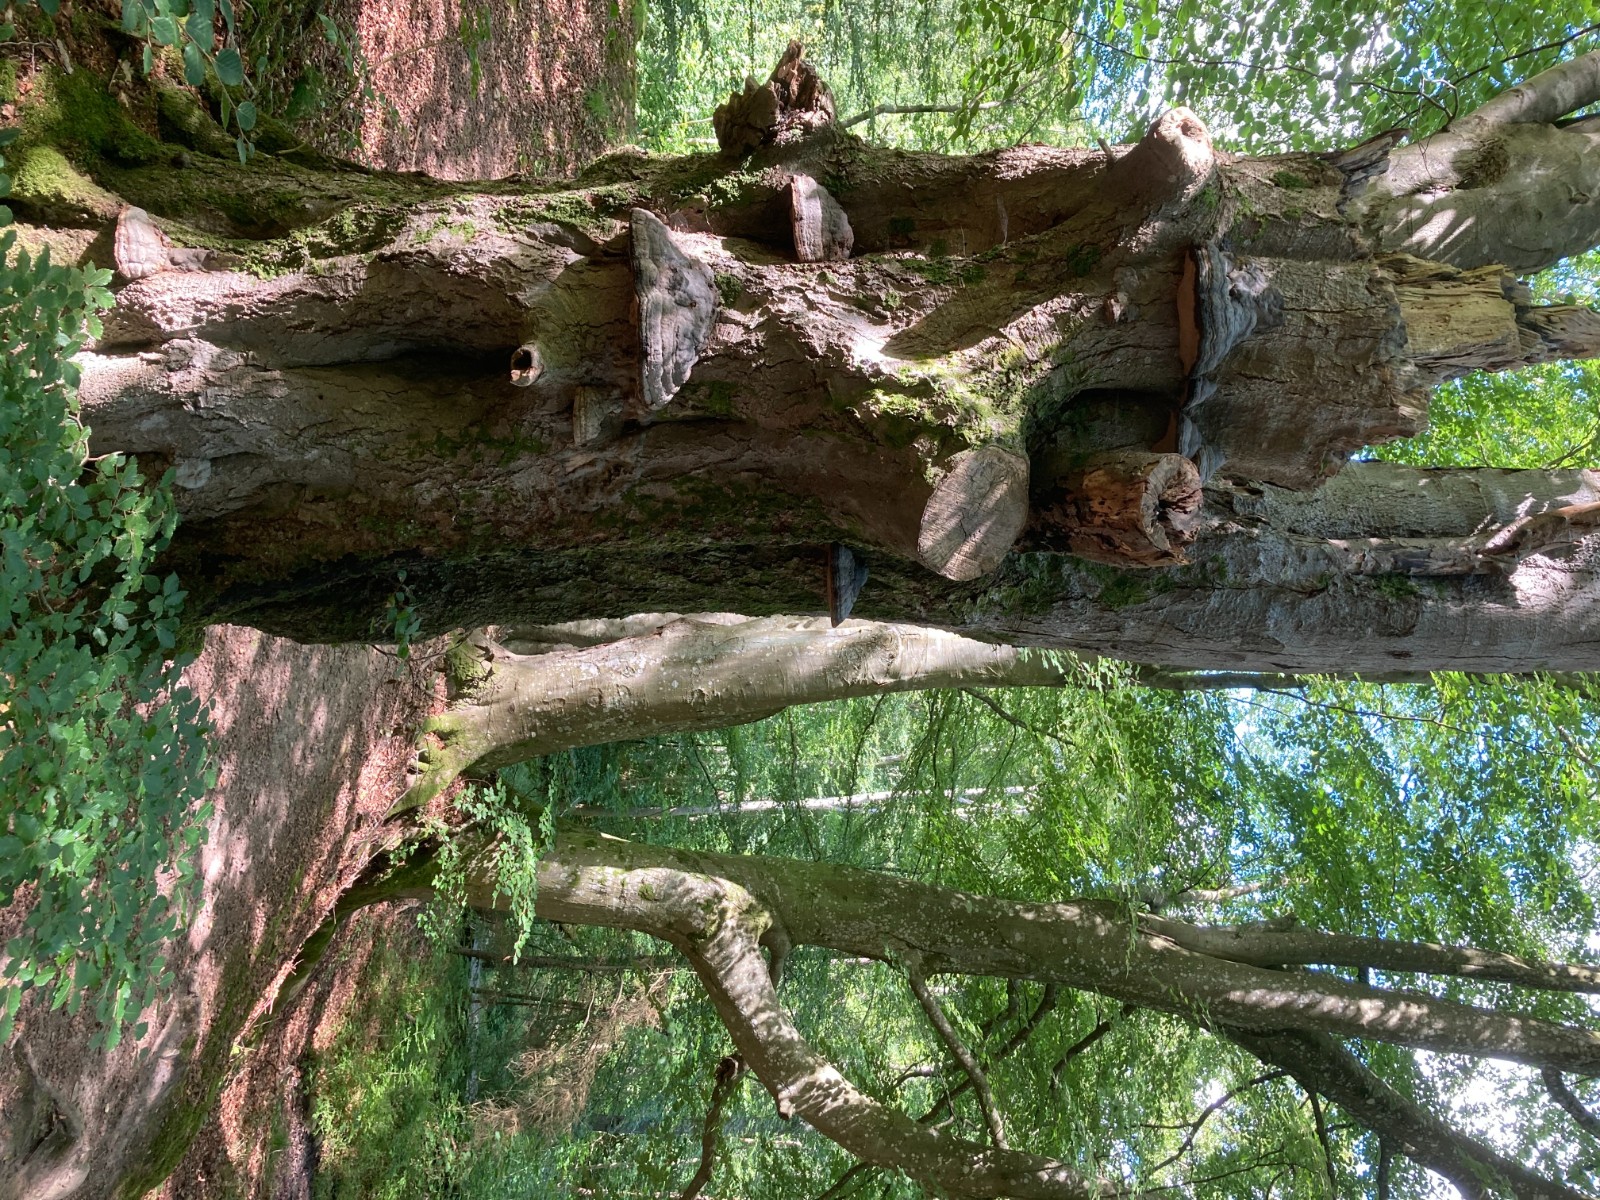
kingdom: Fungi
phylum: Basidiomycota
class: Agaricomycetes
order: Polyporales
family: Polyporaceae
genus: Fomes
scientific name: Fomes fomentarius
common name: tøndersvamp
